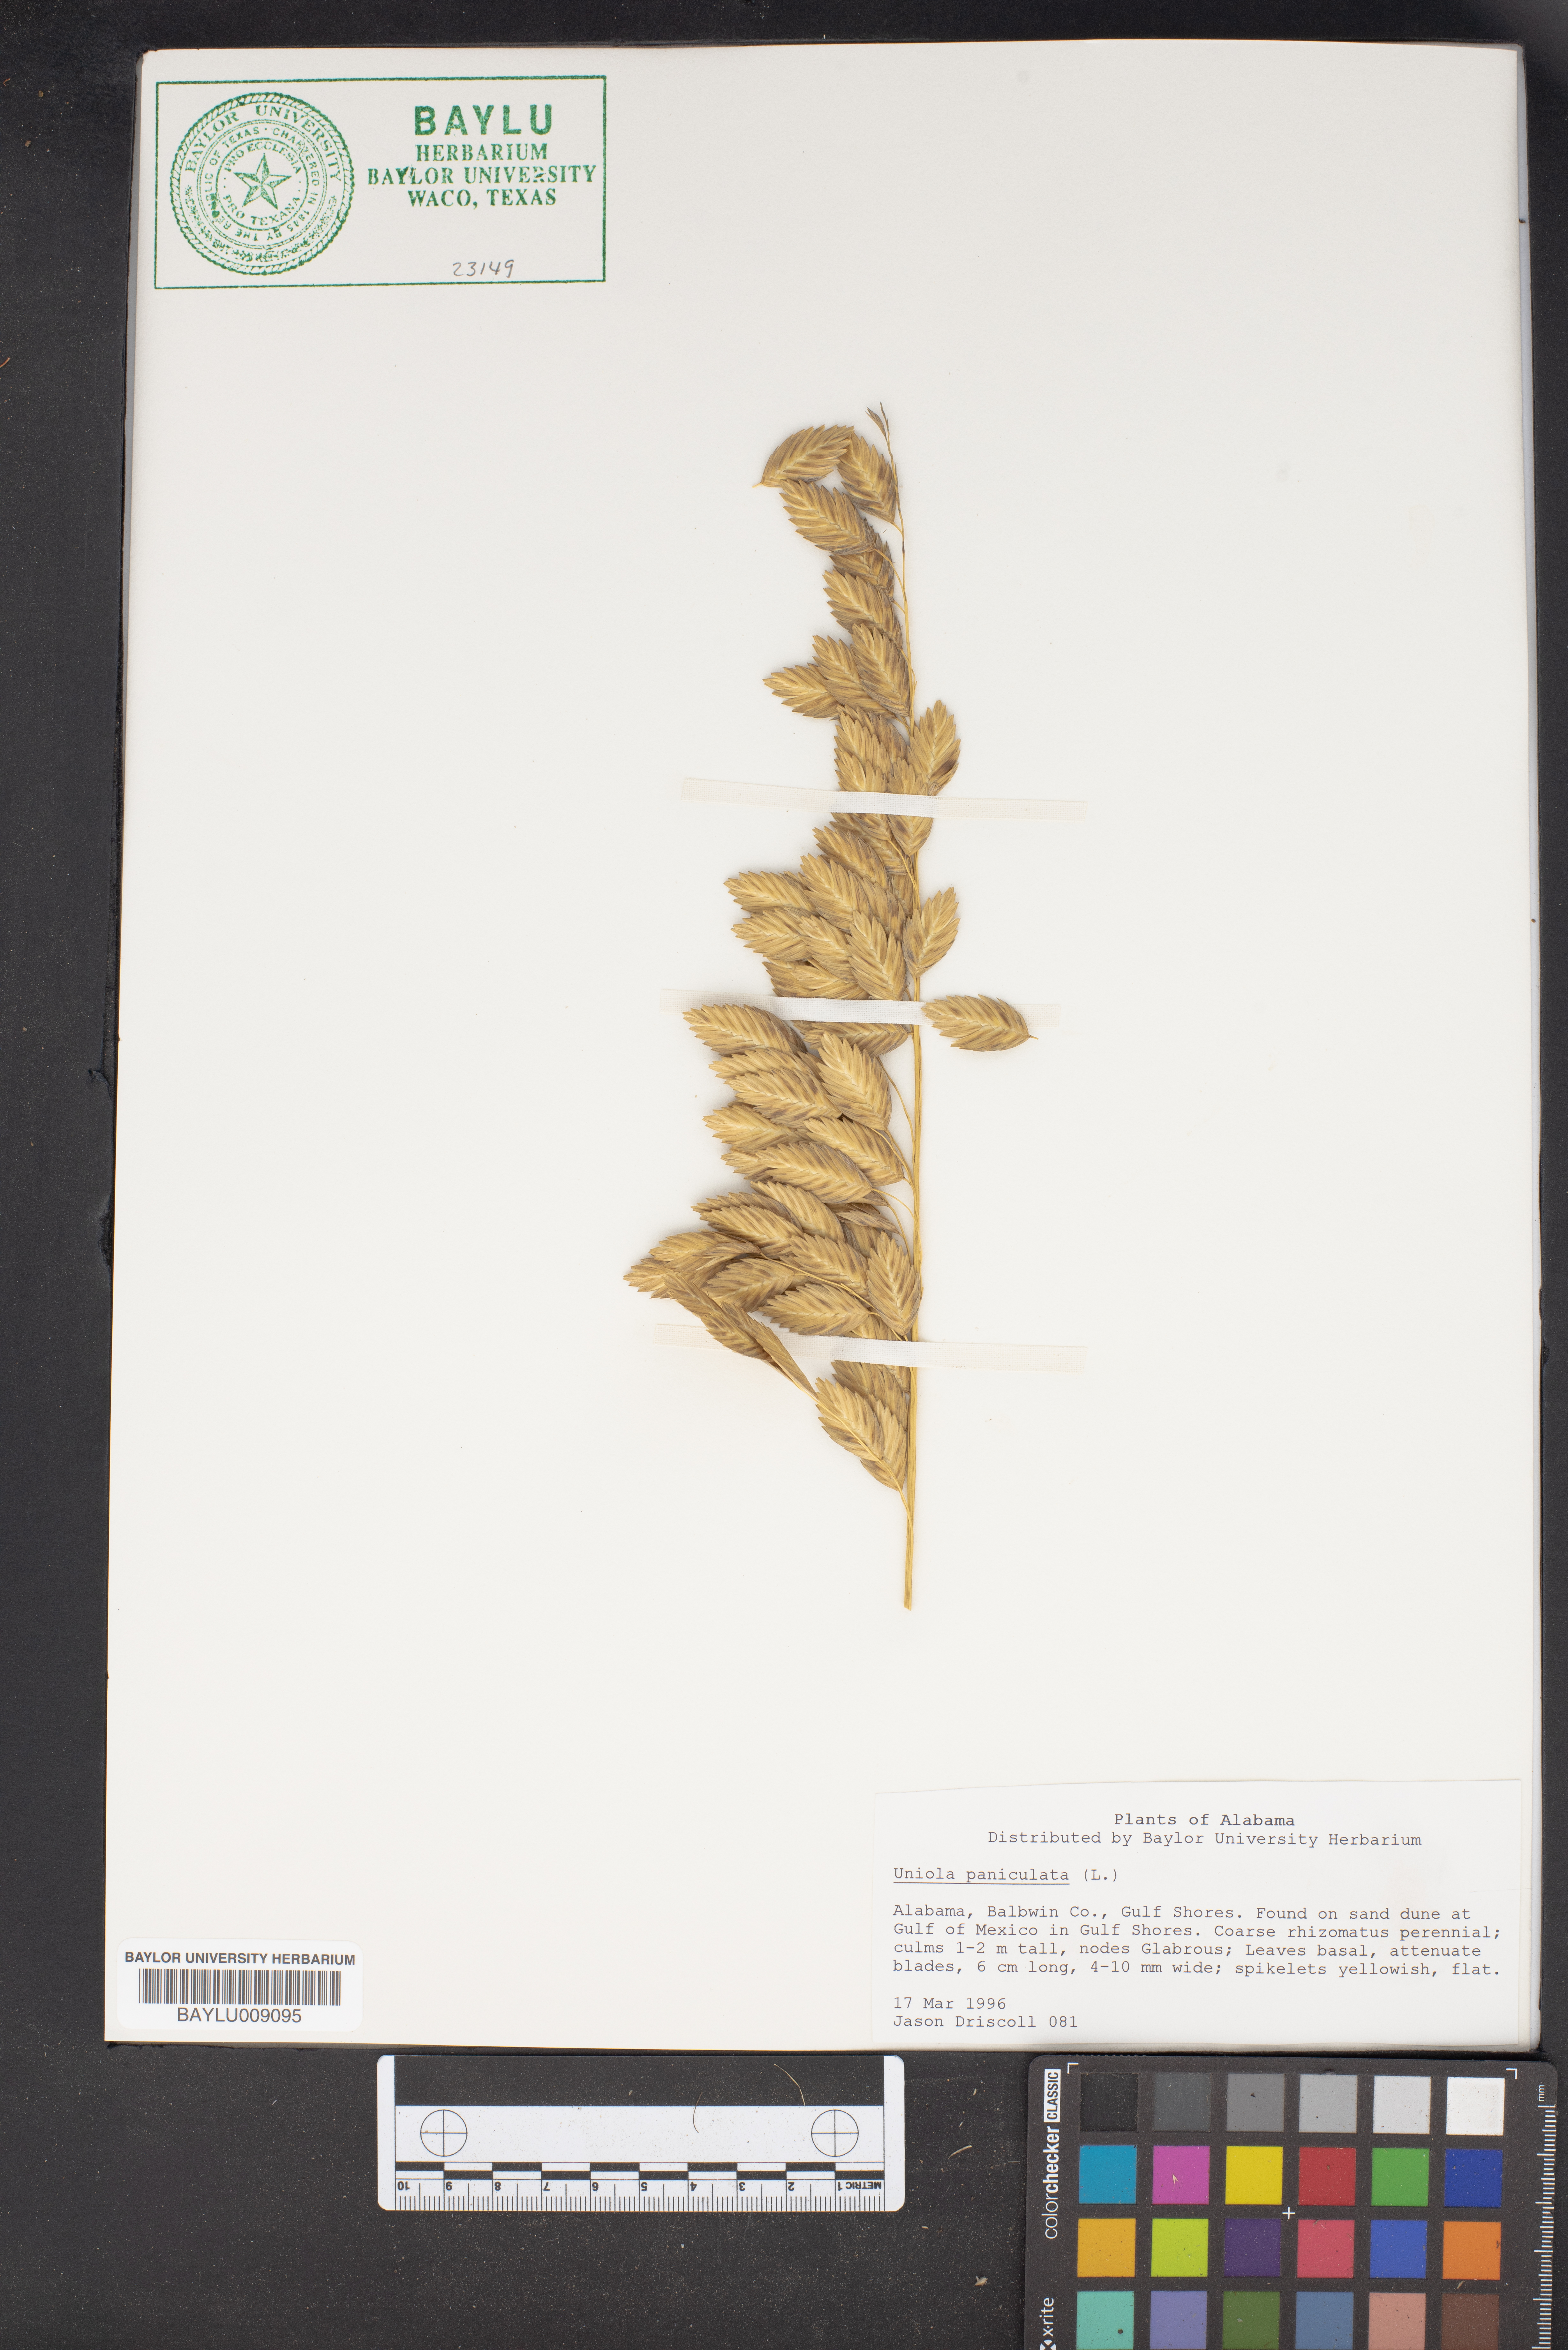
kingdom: Plantae
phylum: Tracheophyta
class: Liliopsida
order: Poales
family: Poaceae
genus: Uniola
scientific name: Uniola paniculata
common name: Seaside-oats
